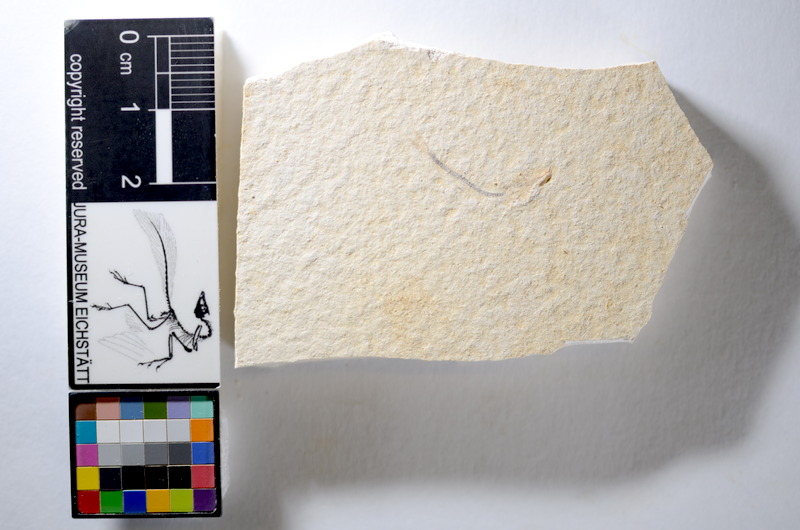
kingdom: Animalia
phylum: Chordata
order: Salmoniformes
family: Orthogonikleithridae
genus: Orthogonikleithrus
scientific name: Orthogonikleithrus hoelli
